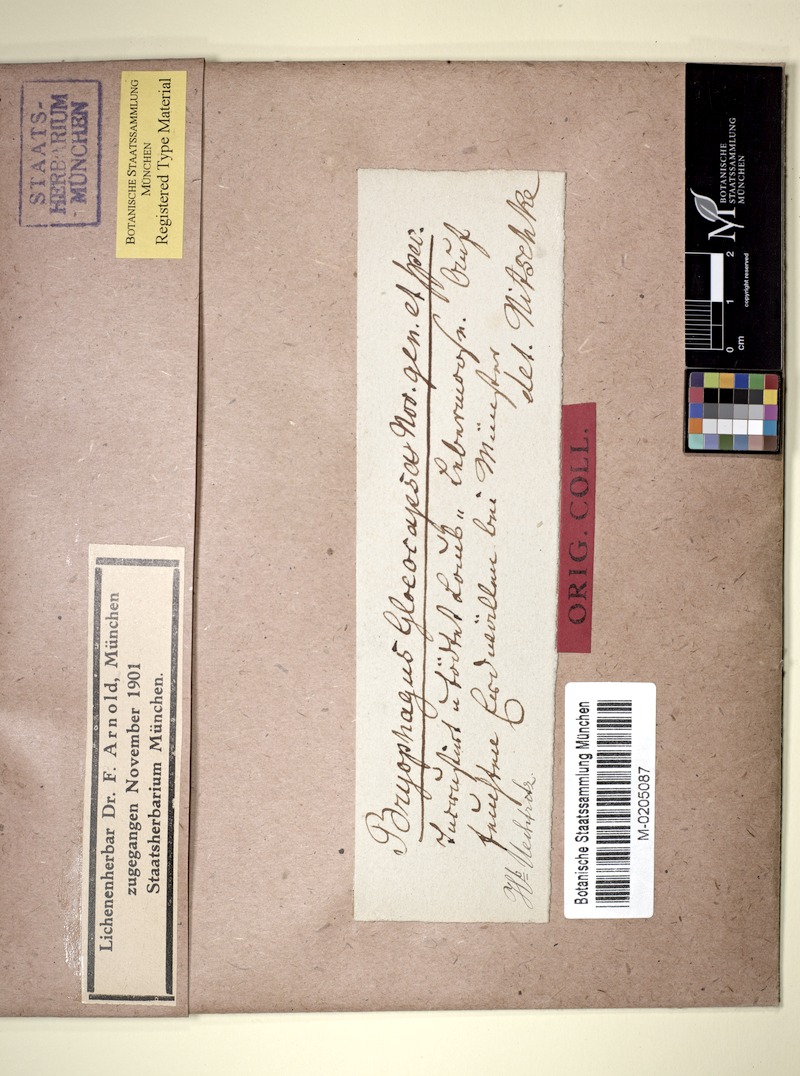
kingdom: Fungi
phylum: Ascomycota
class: Lecanoromycetes
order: Ostropales
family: Stictidaceae
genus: Cryptodiscus
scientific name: Cryptodiscus gloeocapsa
